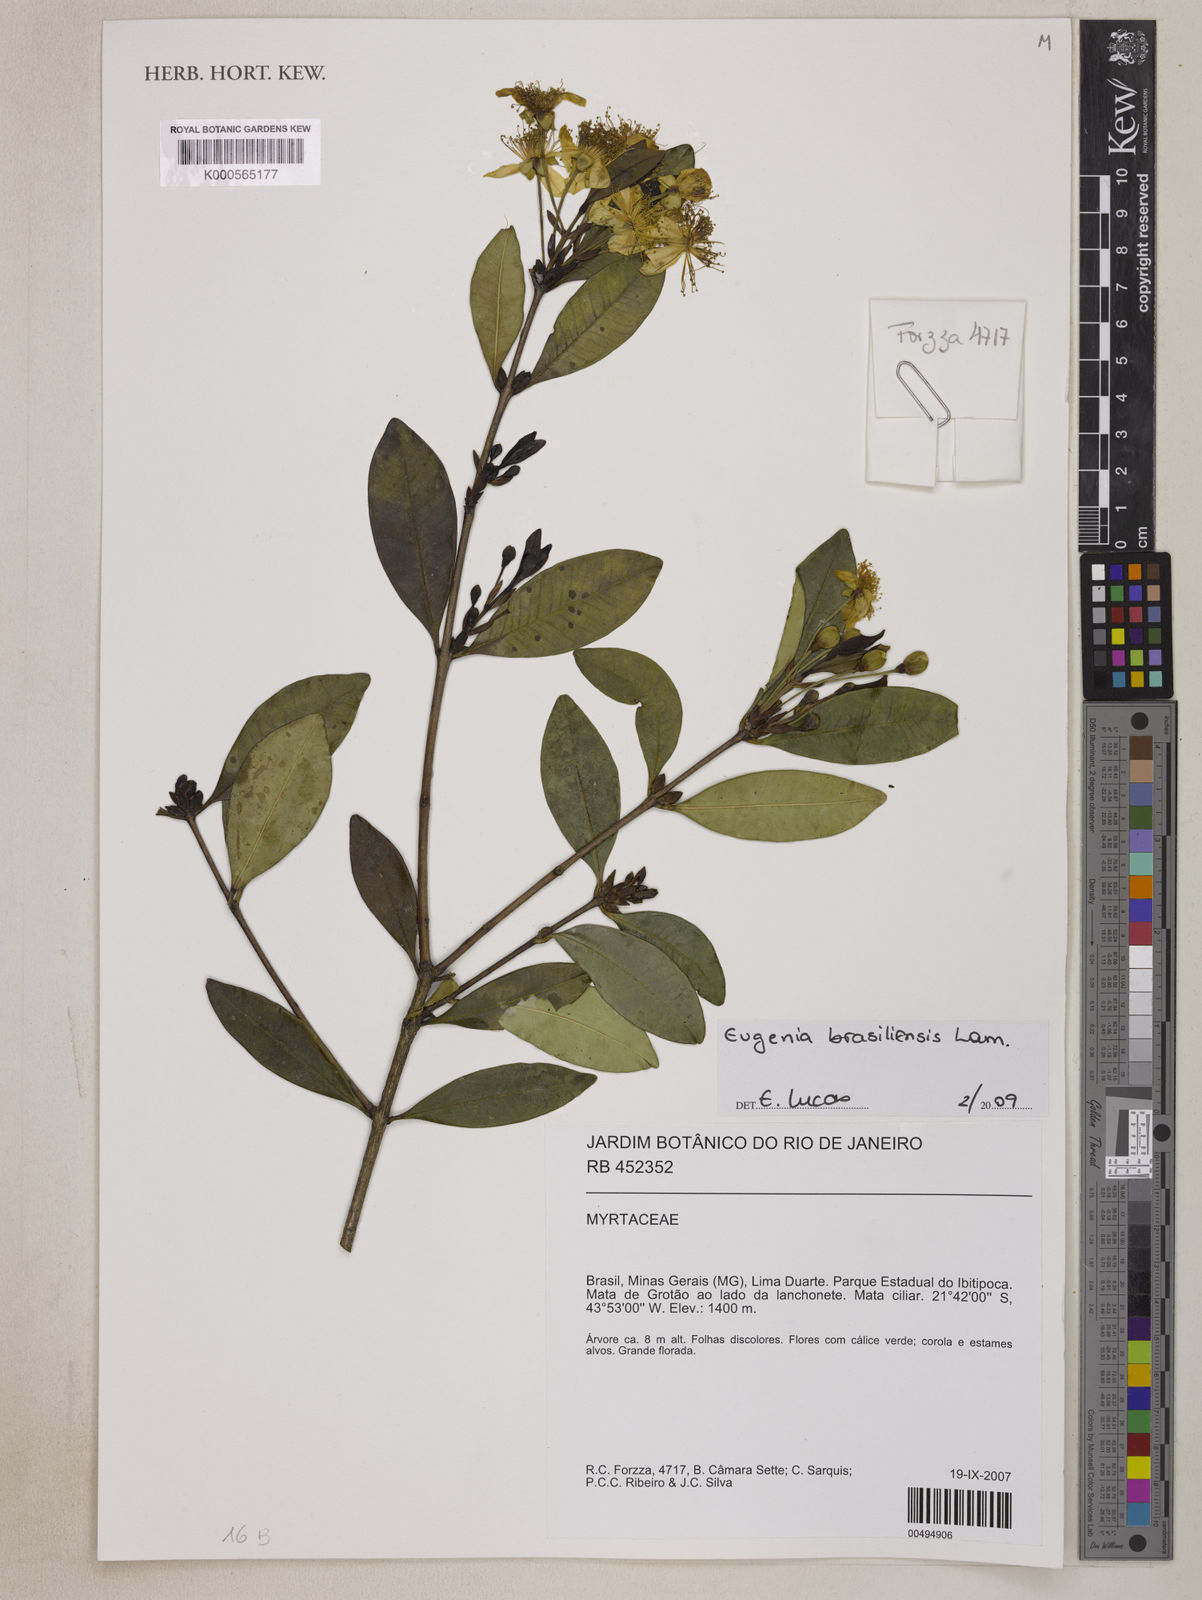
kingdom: Plantae
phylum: Tracheophyta
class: Magnoliopsida
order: Myrtales
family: Myrtaceae
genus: Eugenia
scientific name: Eugenia brasiliensis
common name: Grumichama
